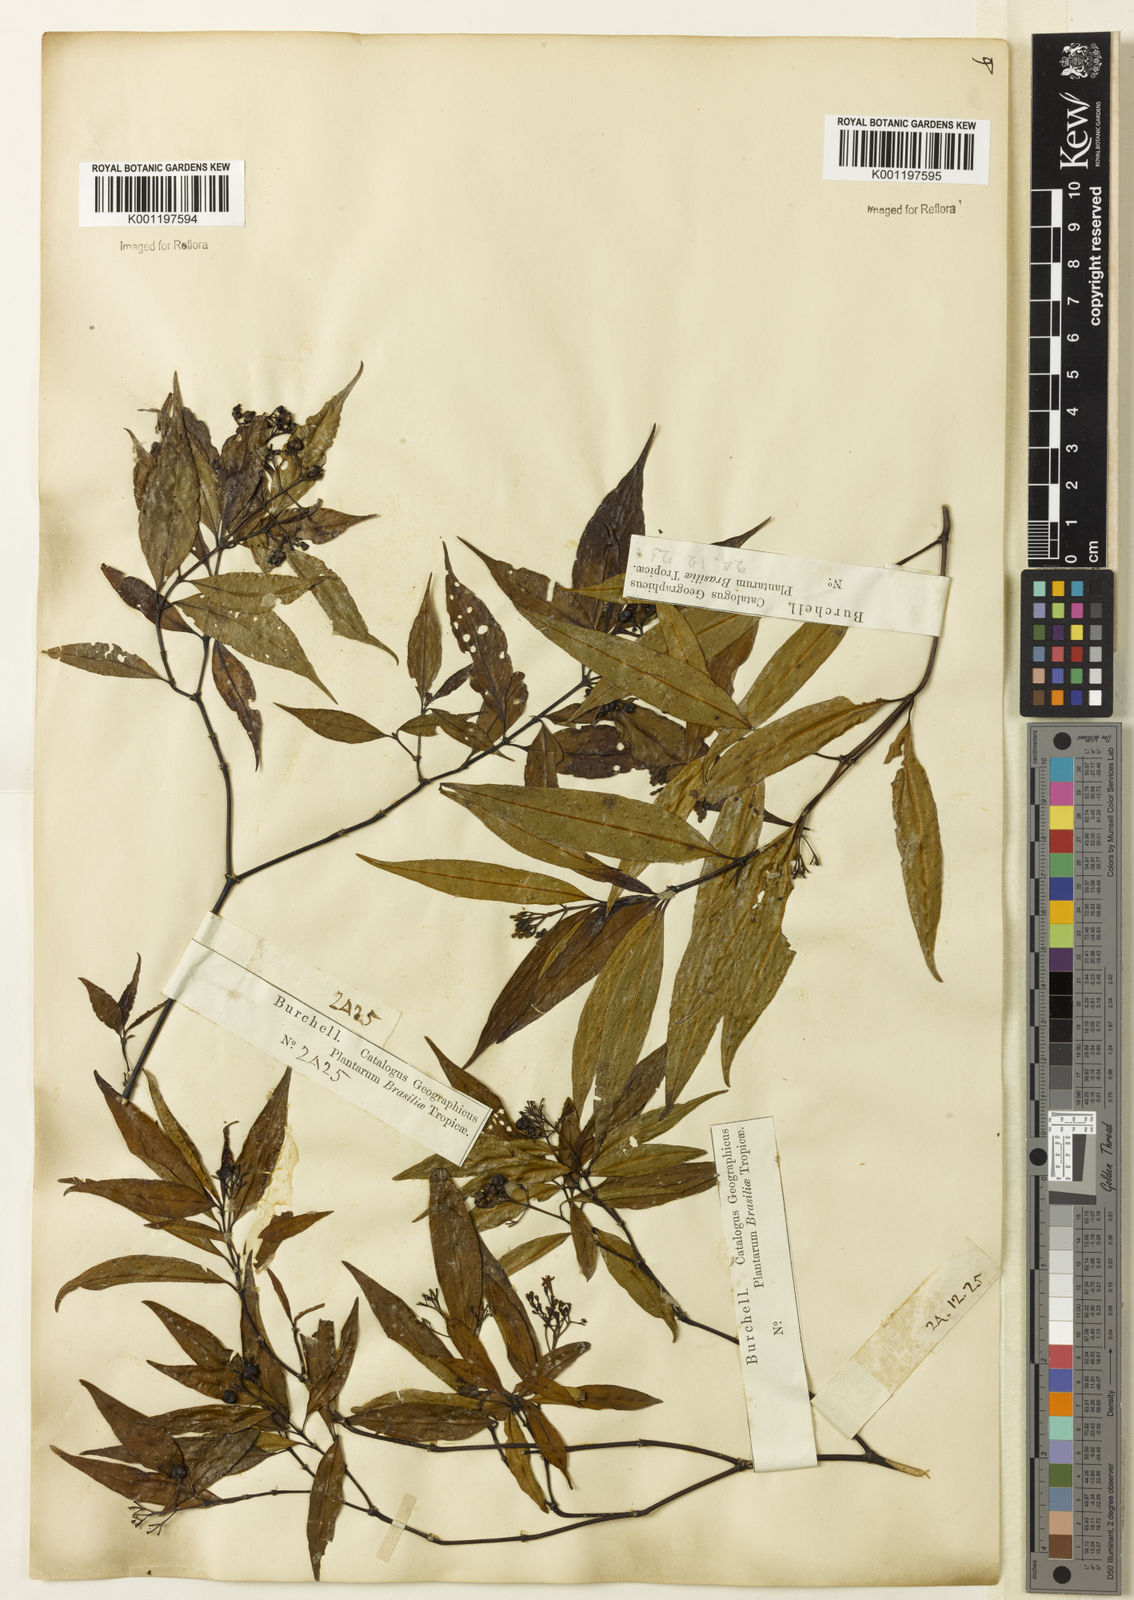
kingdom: Plantae
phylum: Tracheophyta
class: Magnoliopsida
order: Gentianales
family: Rubiaceae
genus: Psychotria
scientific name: Psychotria leiocarpa
